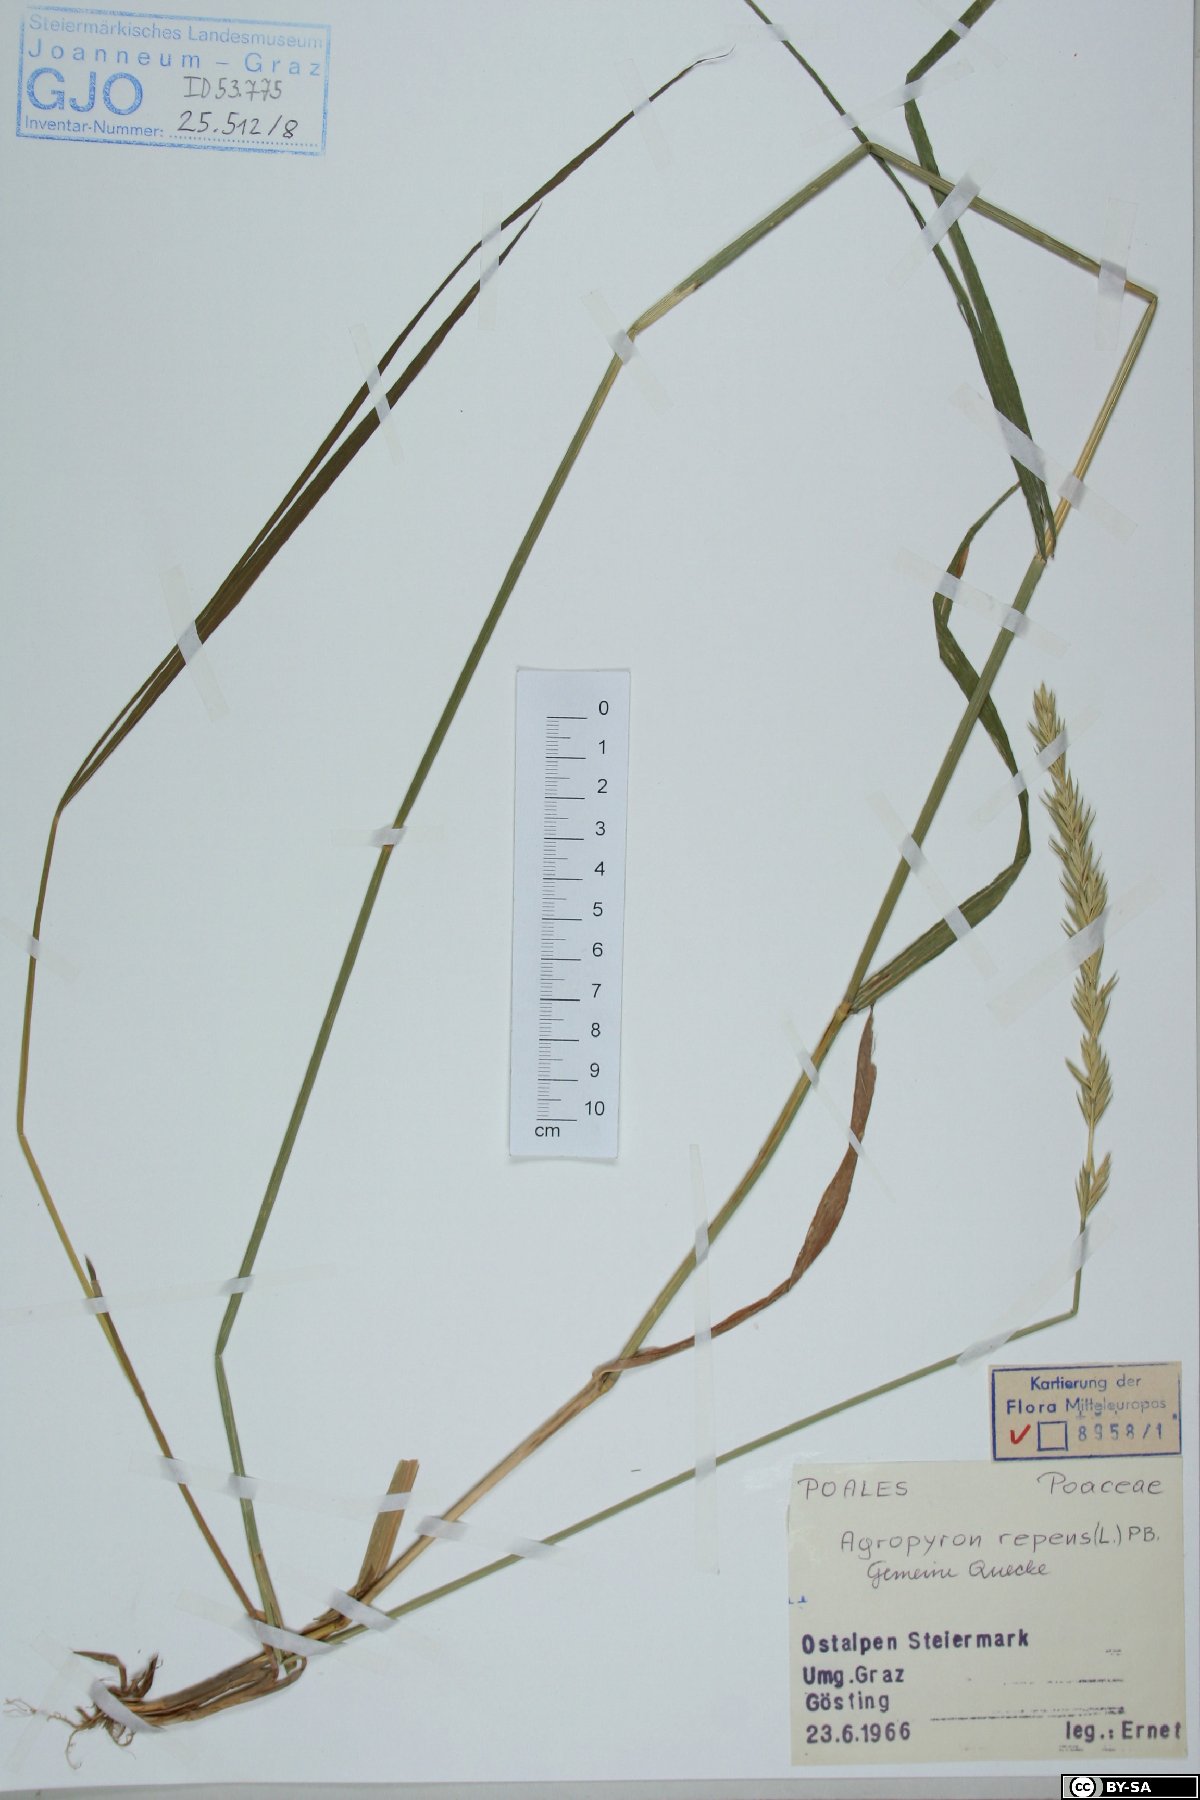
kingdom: Plantae
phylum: Tracheophyta
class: Liliopsida
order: Poales
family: Poaceae
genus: Elymus
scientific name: Elymus repens
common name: Quackgrass
